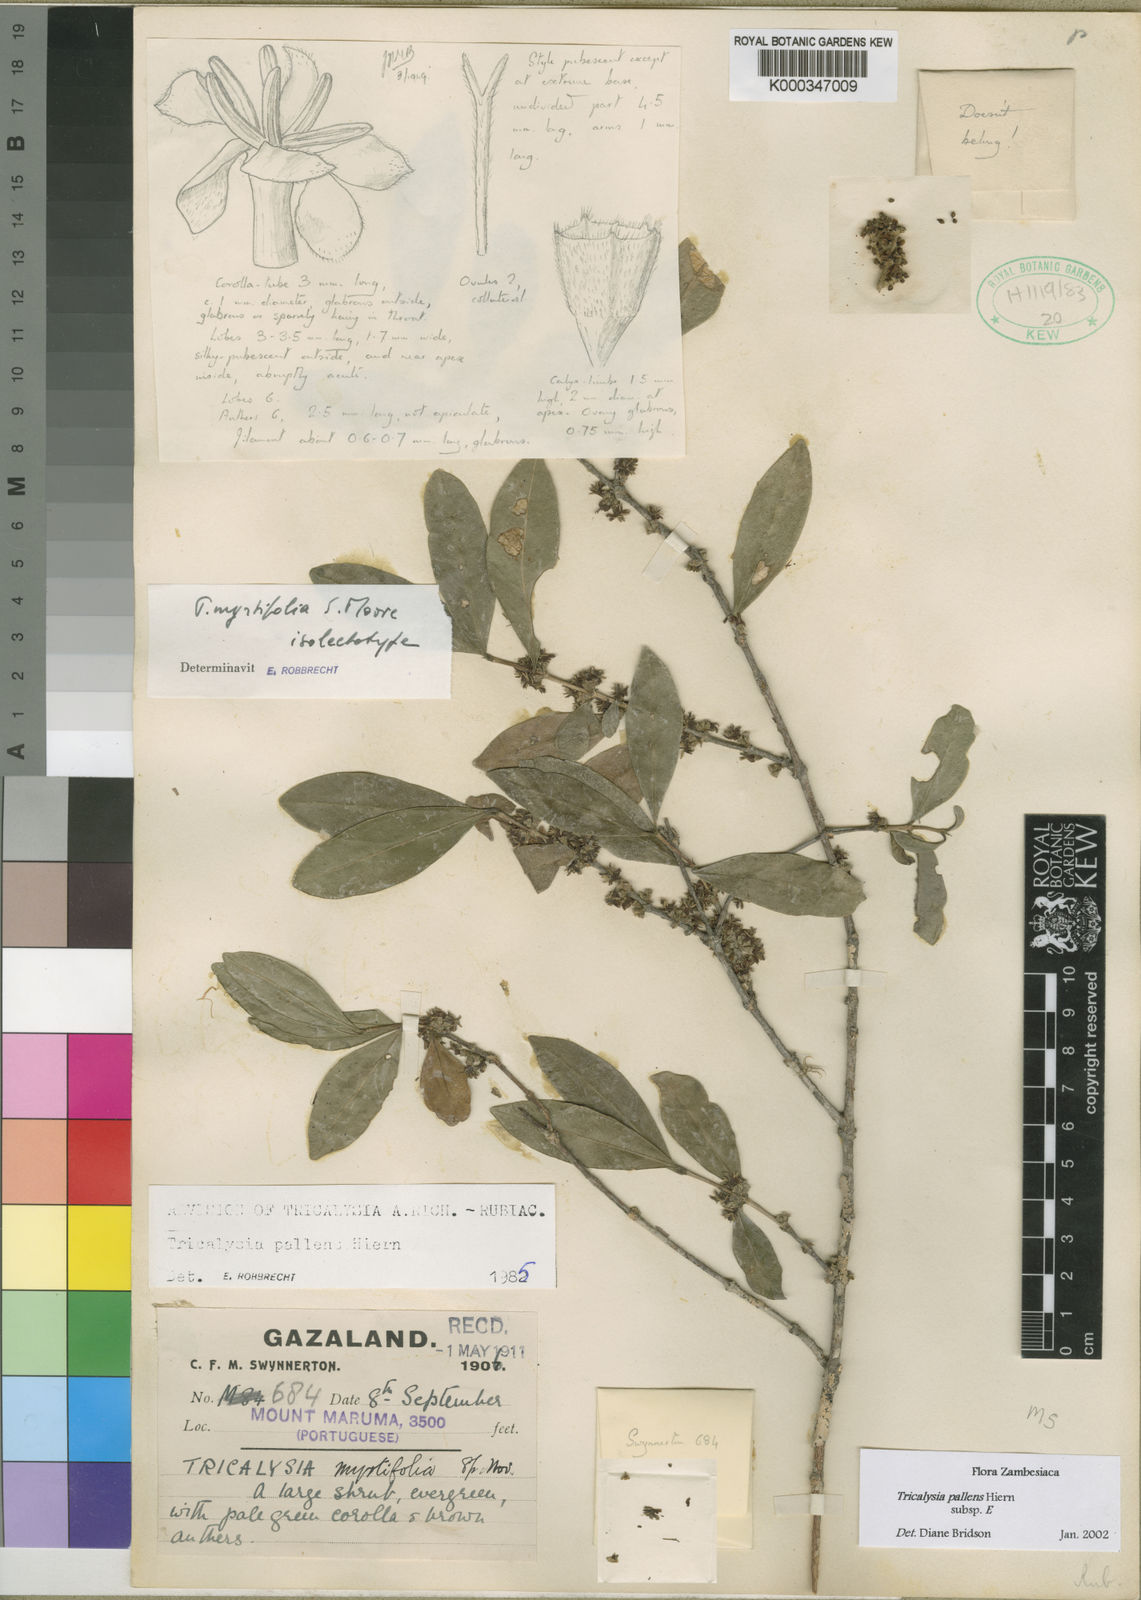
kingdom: Plantae
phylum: Tracheophyta
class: Magnoliopsida
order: Gentianales
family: Rubiaceae
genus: Tricalysia
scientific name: Tricalysia pallens
